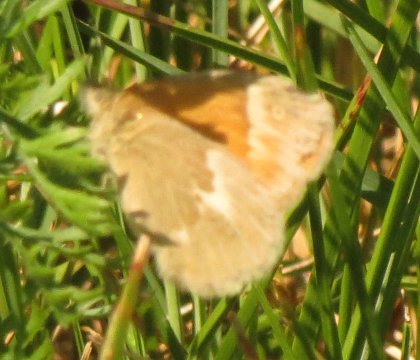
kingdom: Animalia
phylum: Arthropoda
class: Insecta
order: Lepidoptera
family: Nymphalidae
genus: Coenonympha
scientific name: Coenonympha tullia
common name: Large Heath
